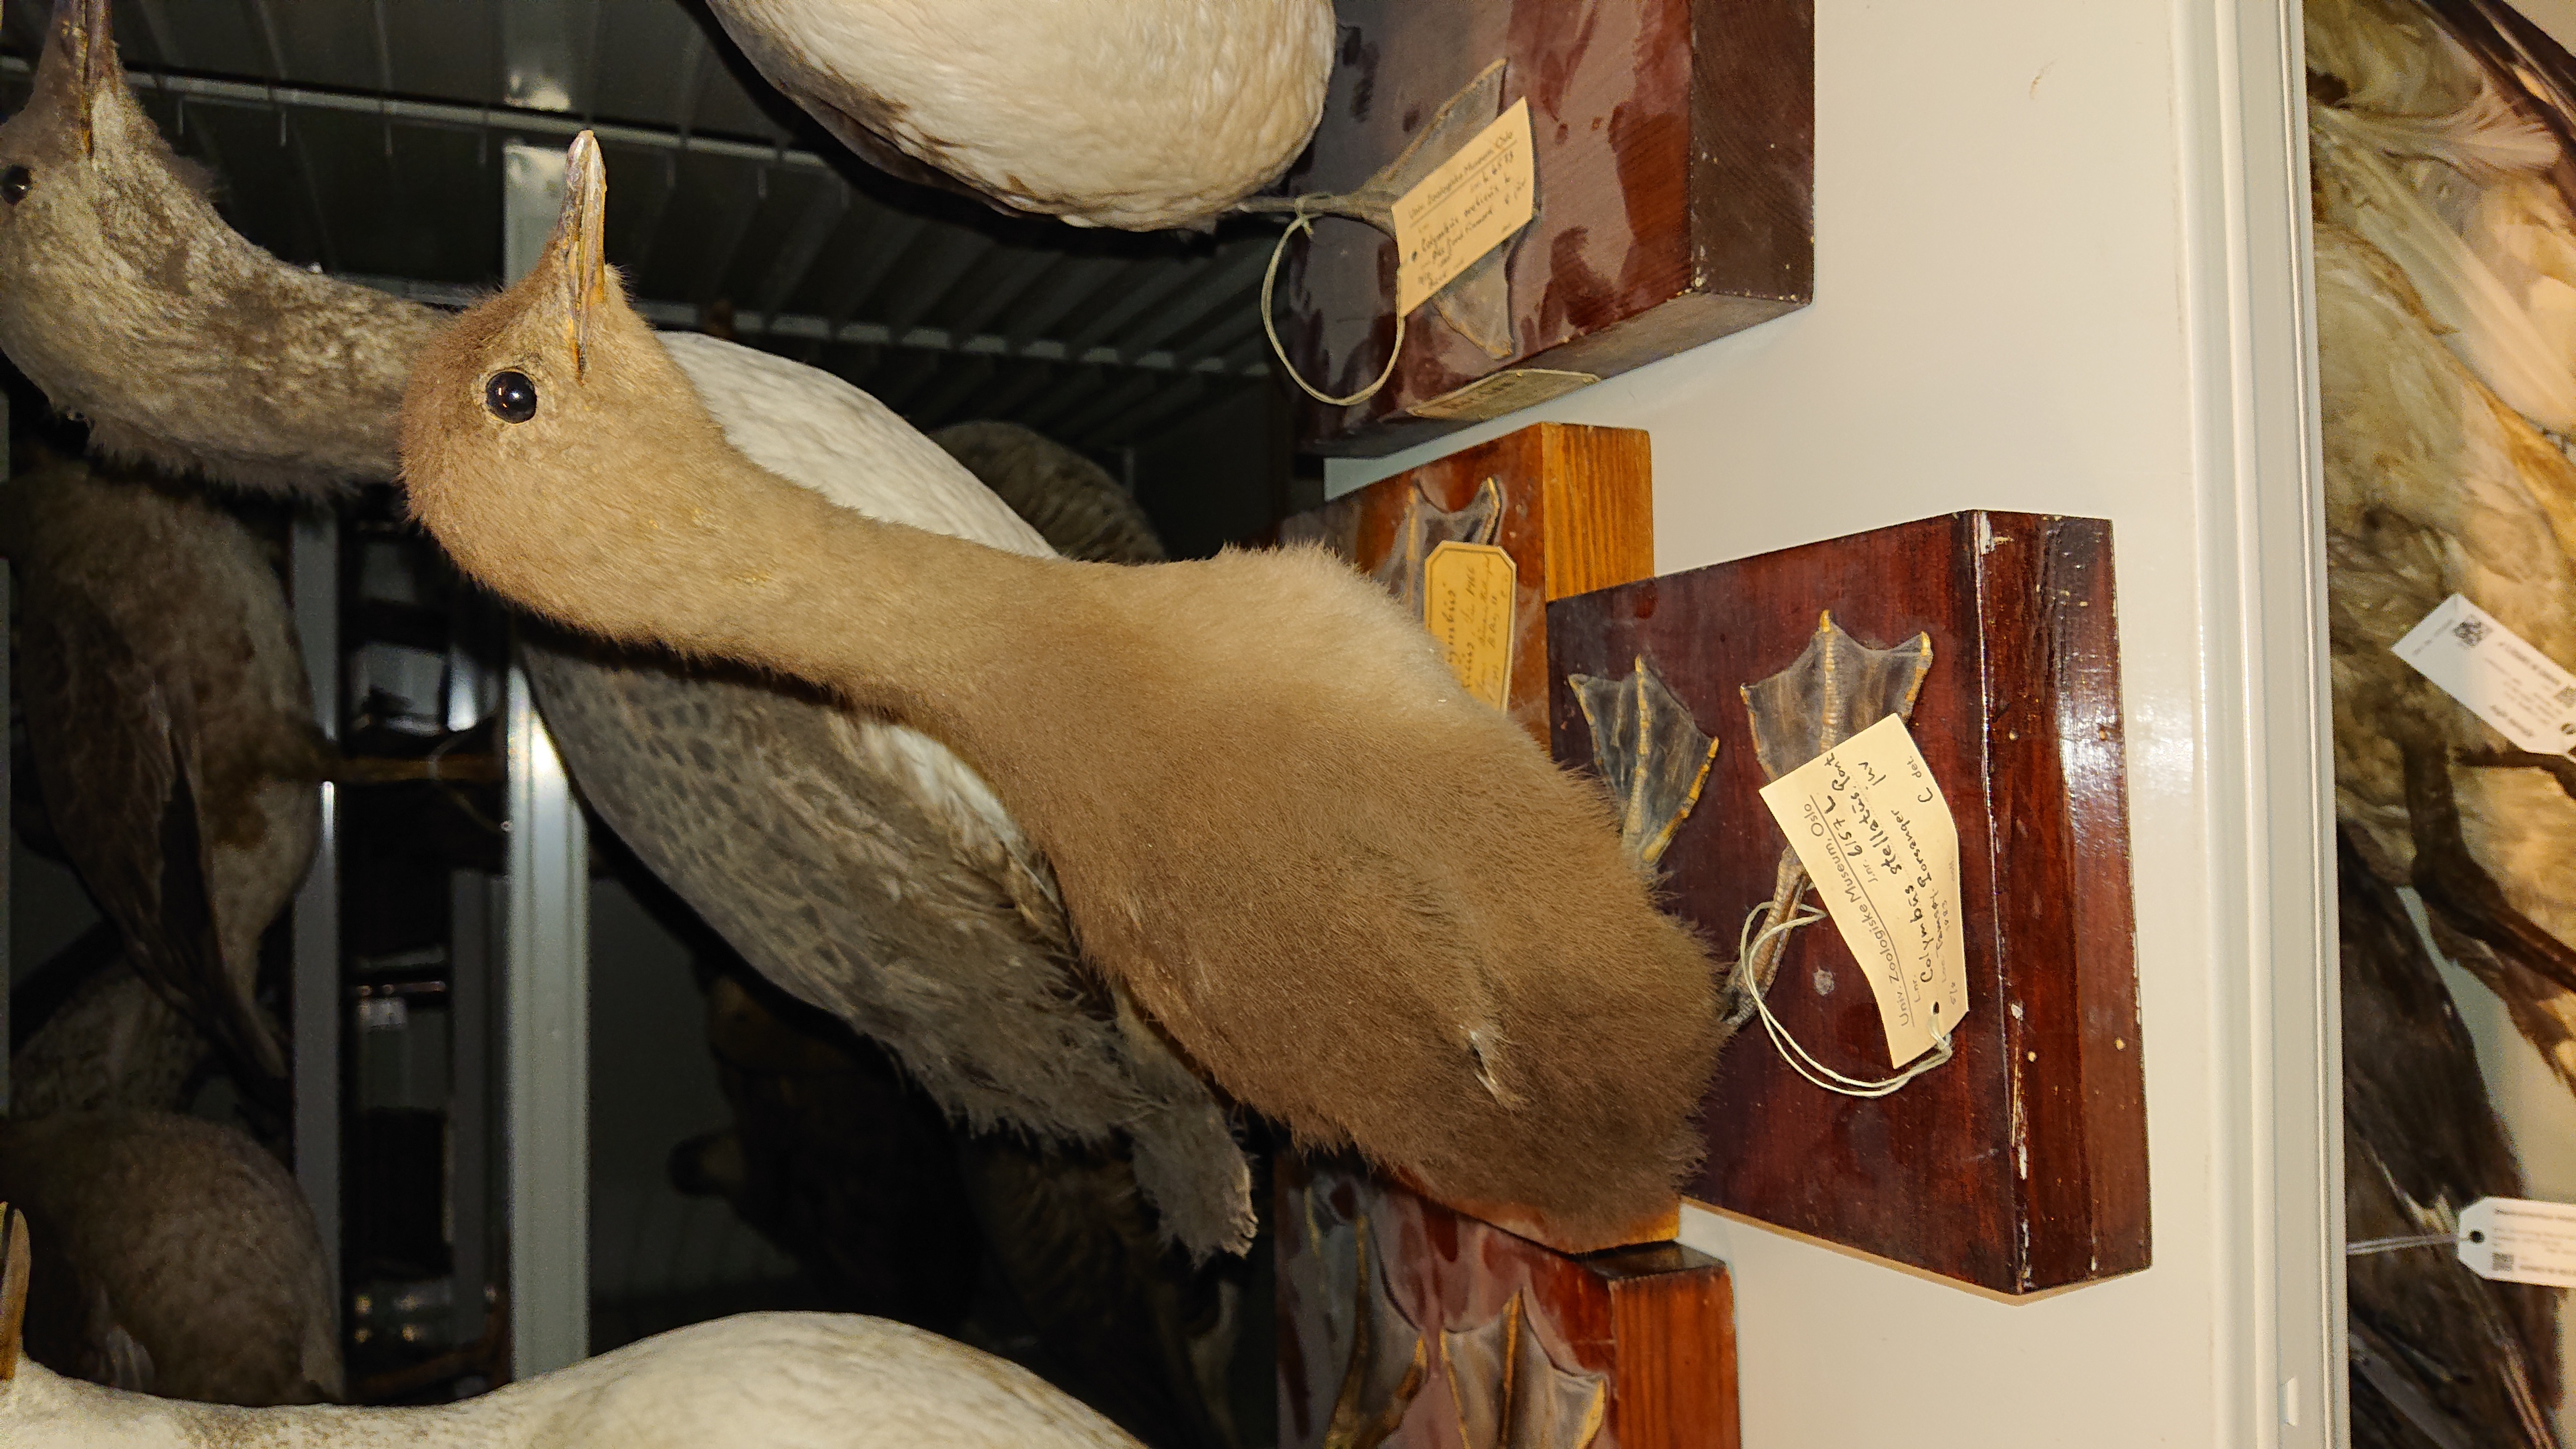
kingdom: Animalia
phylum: Chordata
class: Aves
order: Gaviiformes
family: Gaviidae
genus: Gavia
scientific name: Gavia stellata
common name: Red-throated loon
